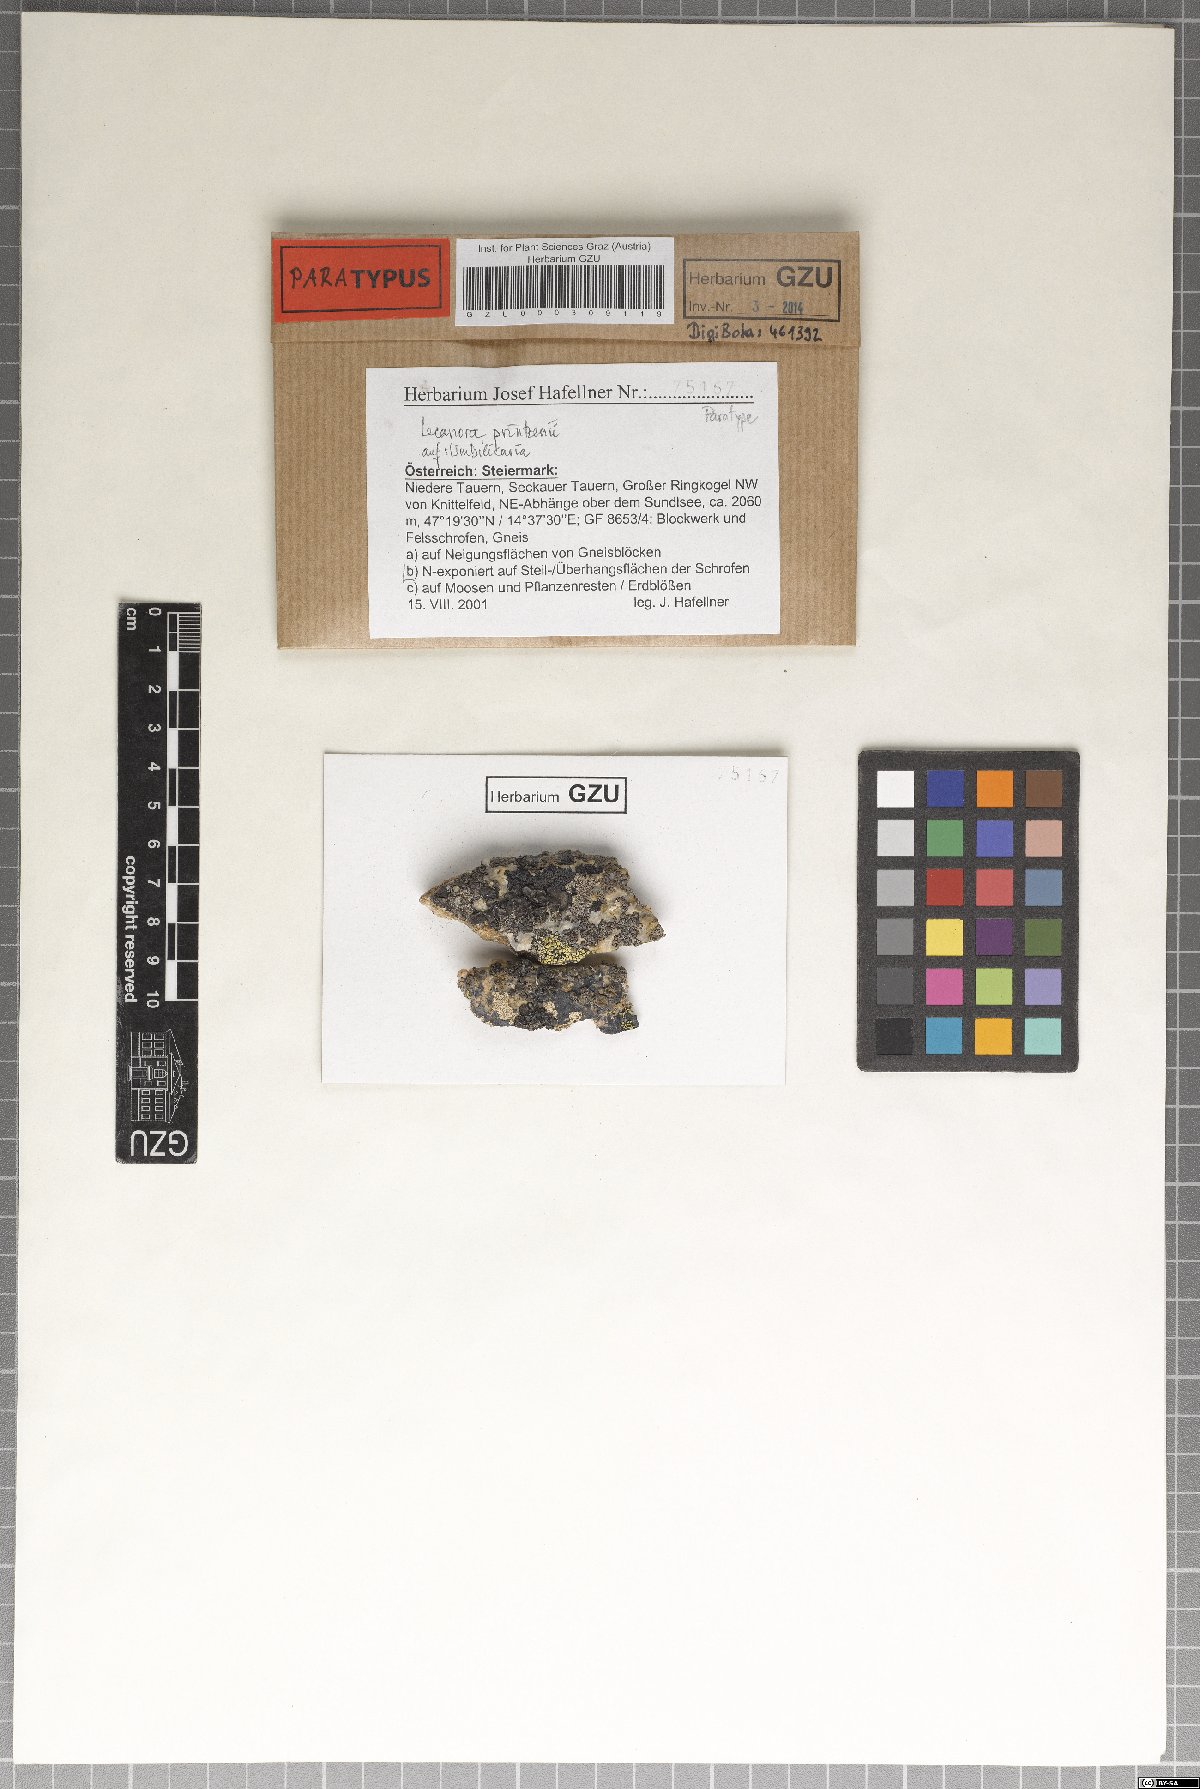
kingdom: Fungi
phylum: Ascomycota
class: Lecanoromycetes
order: Lecanorales
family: Lecanoraceae
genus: Lecanora
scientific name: Lecanora printzenii
